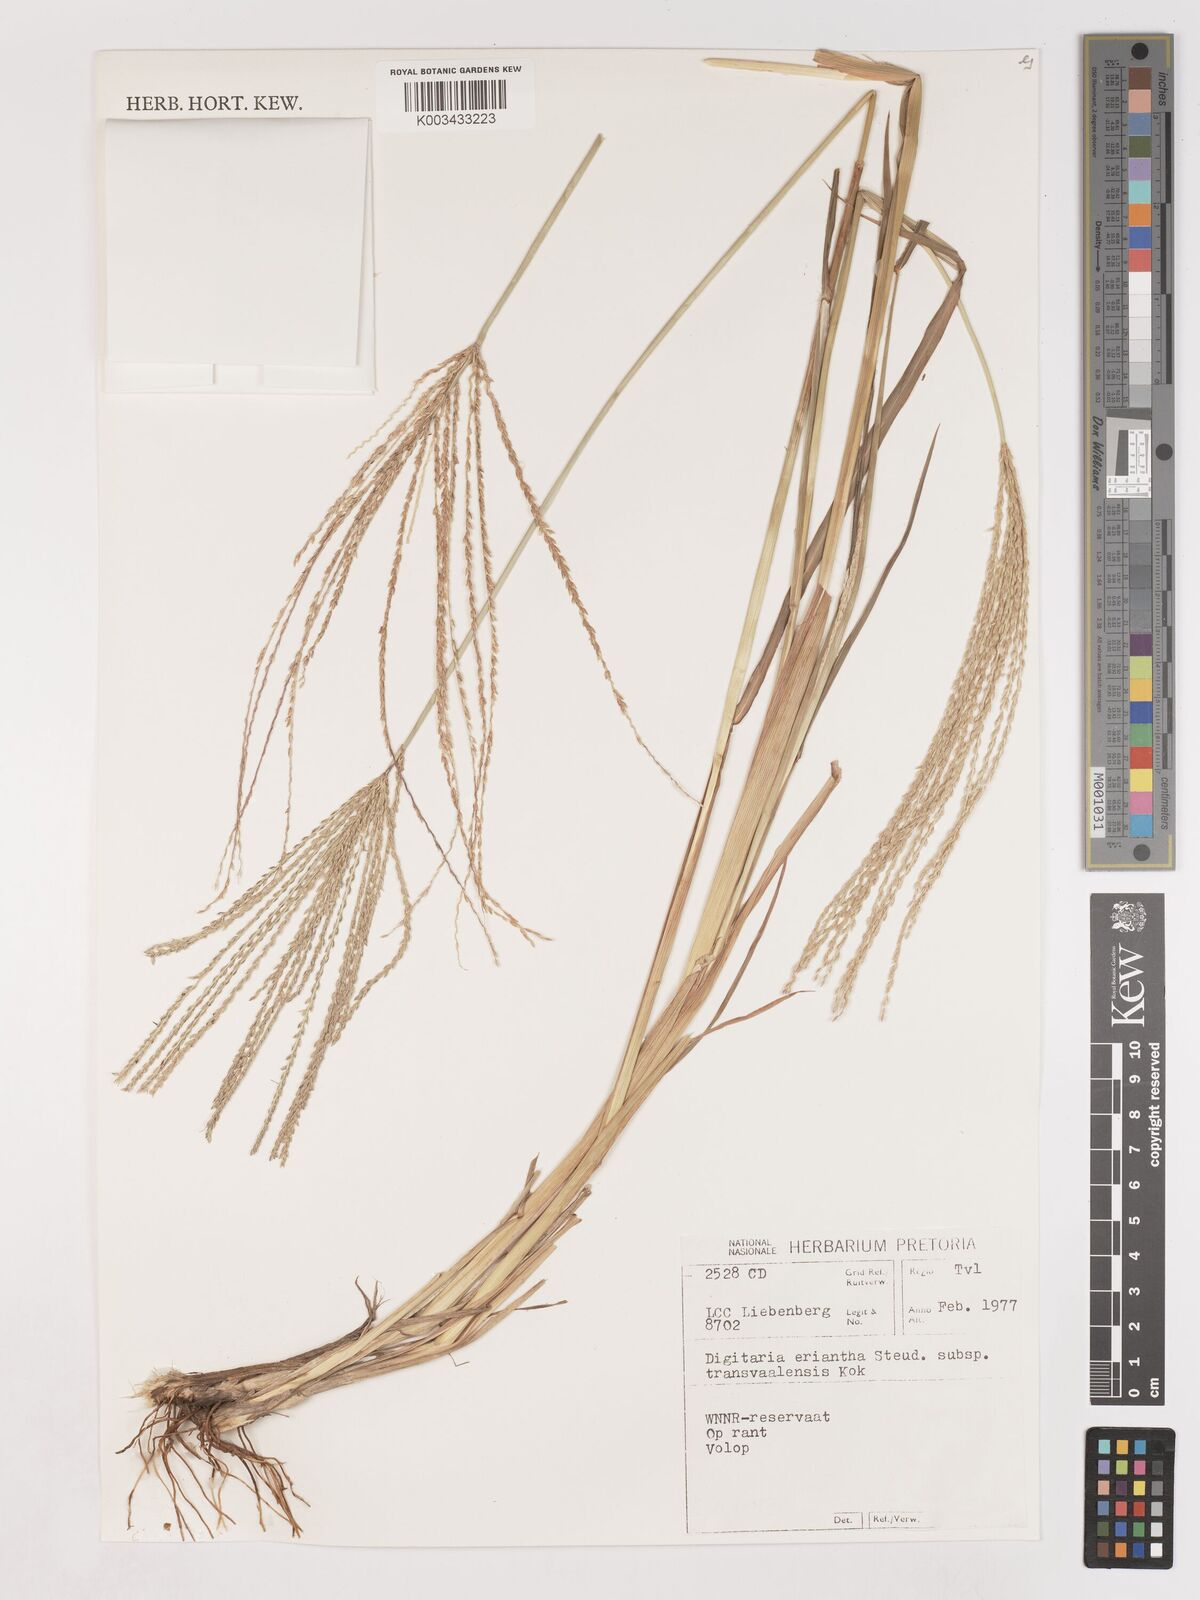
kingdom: Plantae
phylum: Tracheophyta
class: Liliopsida
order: Poales
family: Poaceae
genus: Digitaria
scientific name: Digitaria eriantha
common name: Digitgrass
